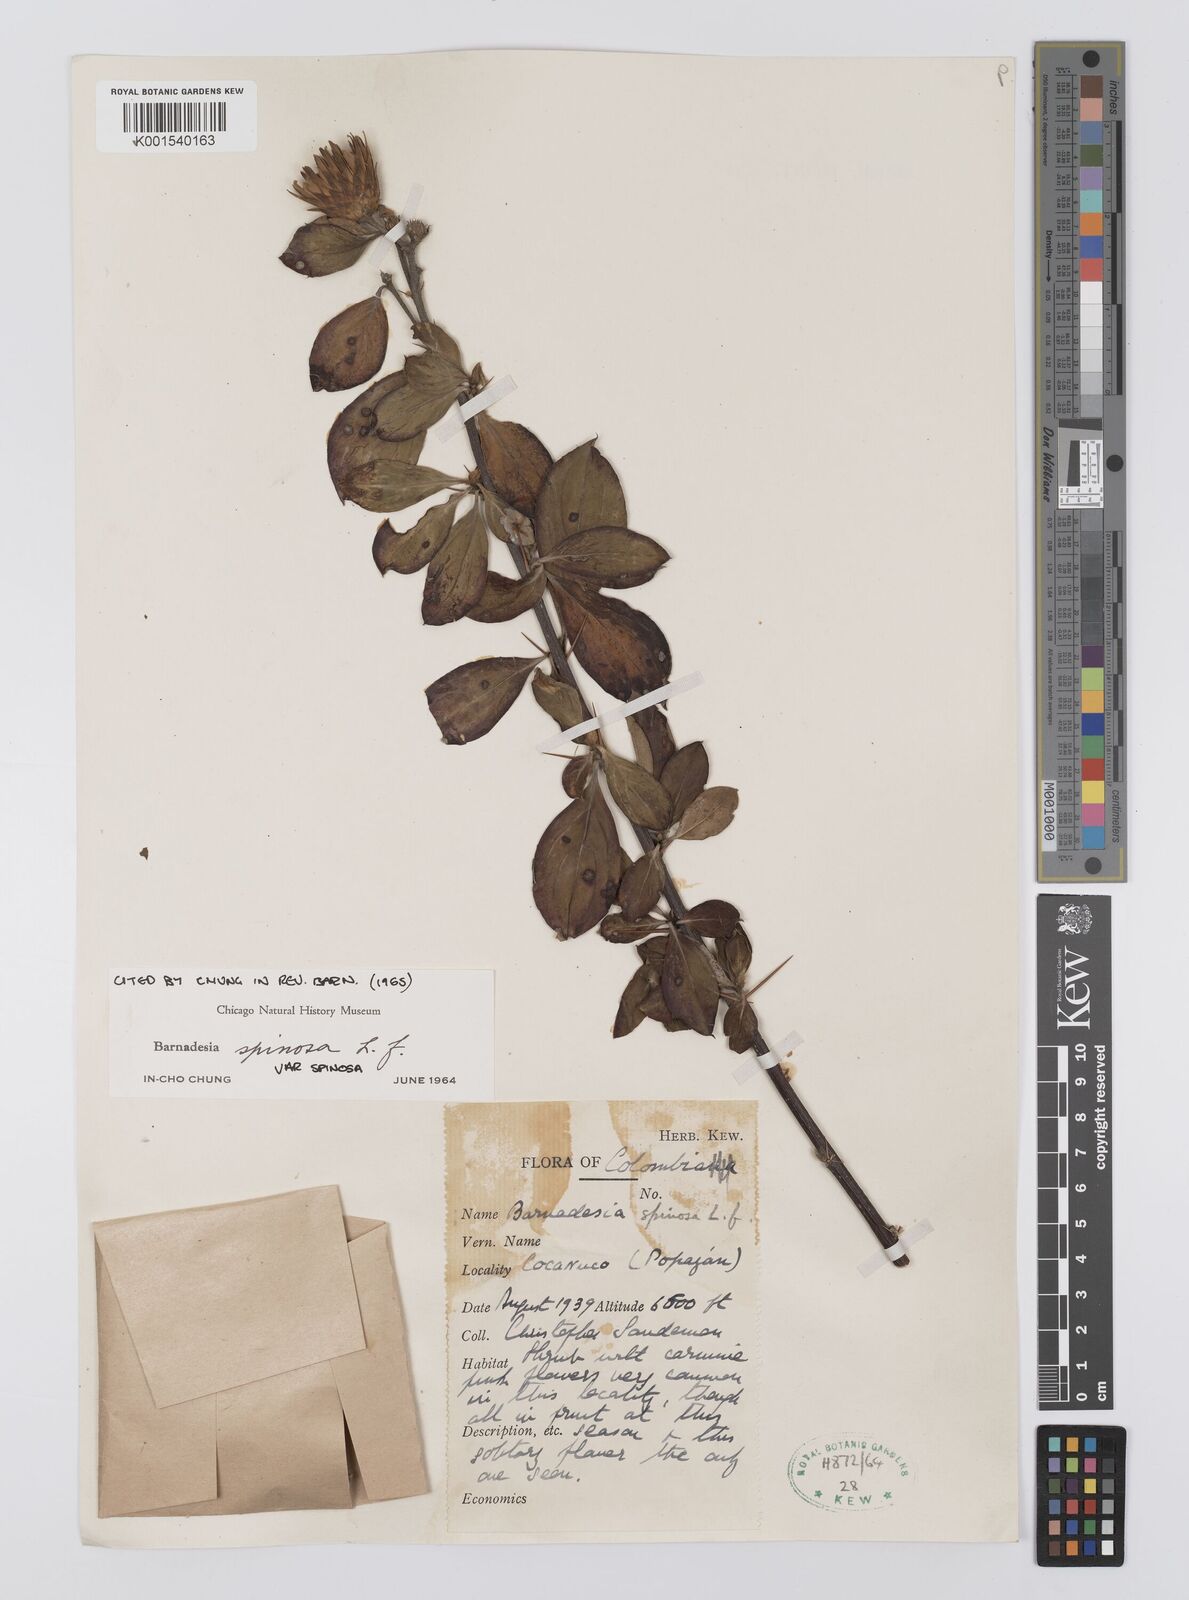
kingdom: Plantae
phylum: Tracheophyta
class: Magnoliopsida
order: Asterales
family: Asteraceae
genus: Barnadesia
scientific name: Barnadesia spinosa
